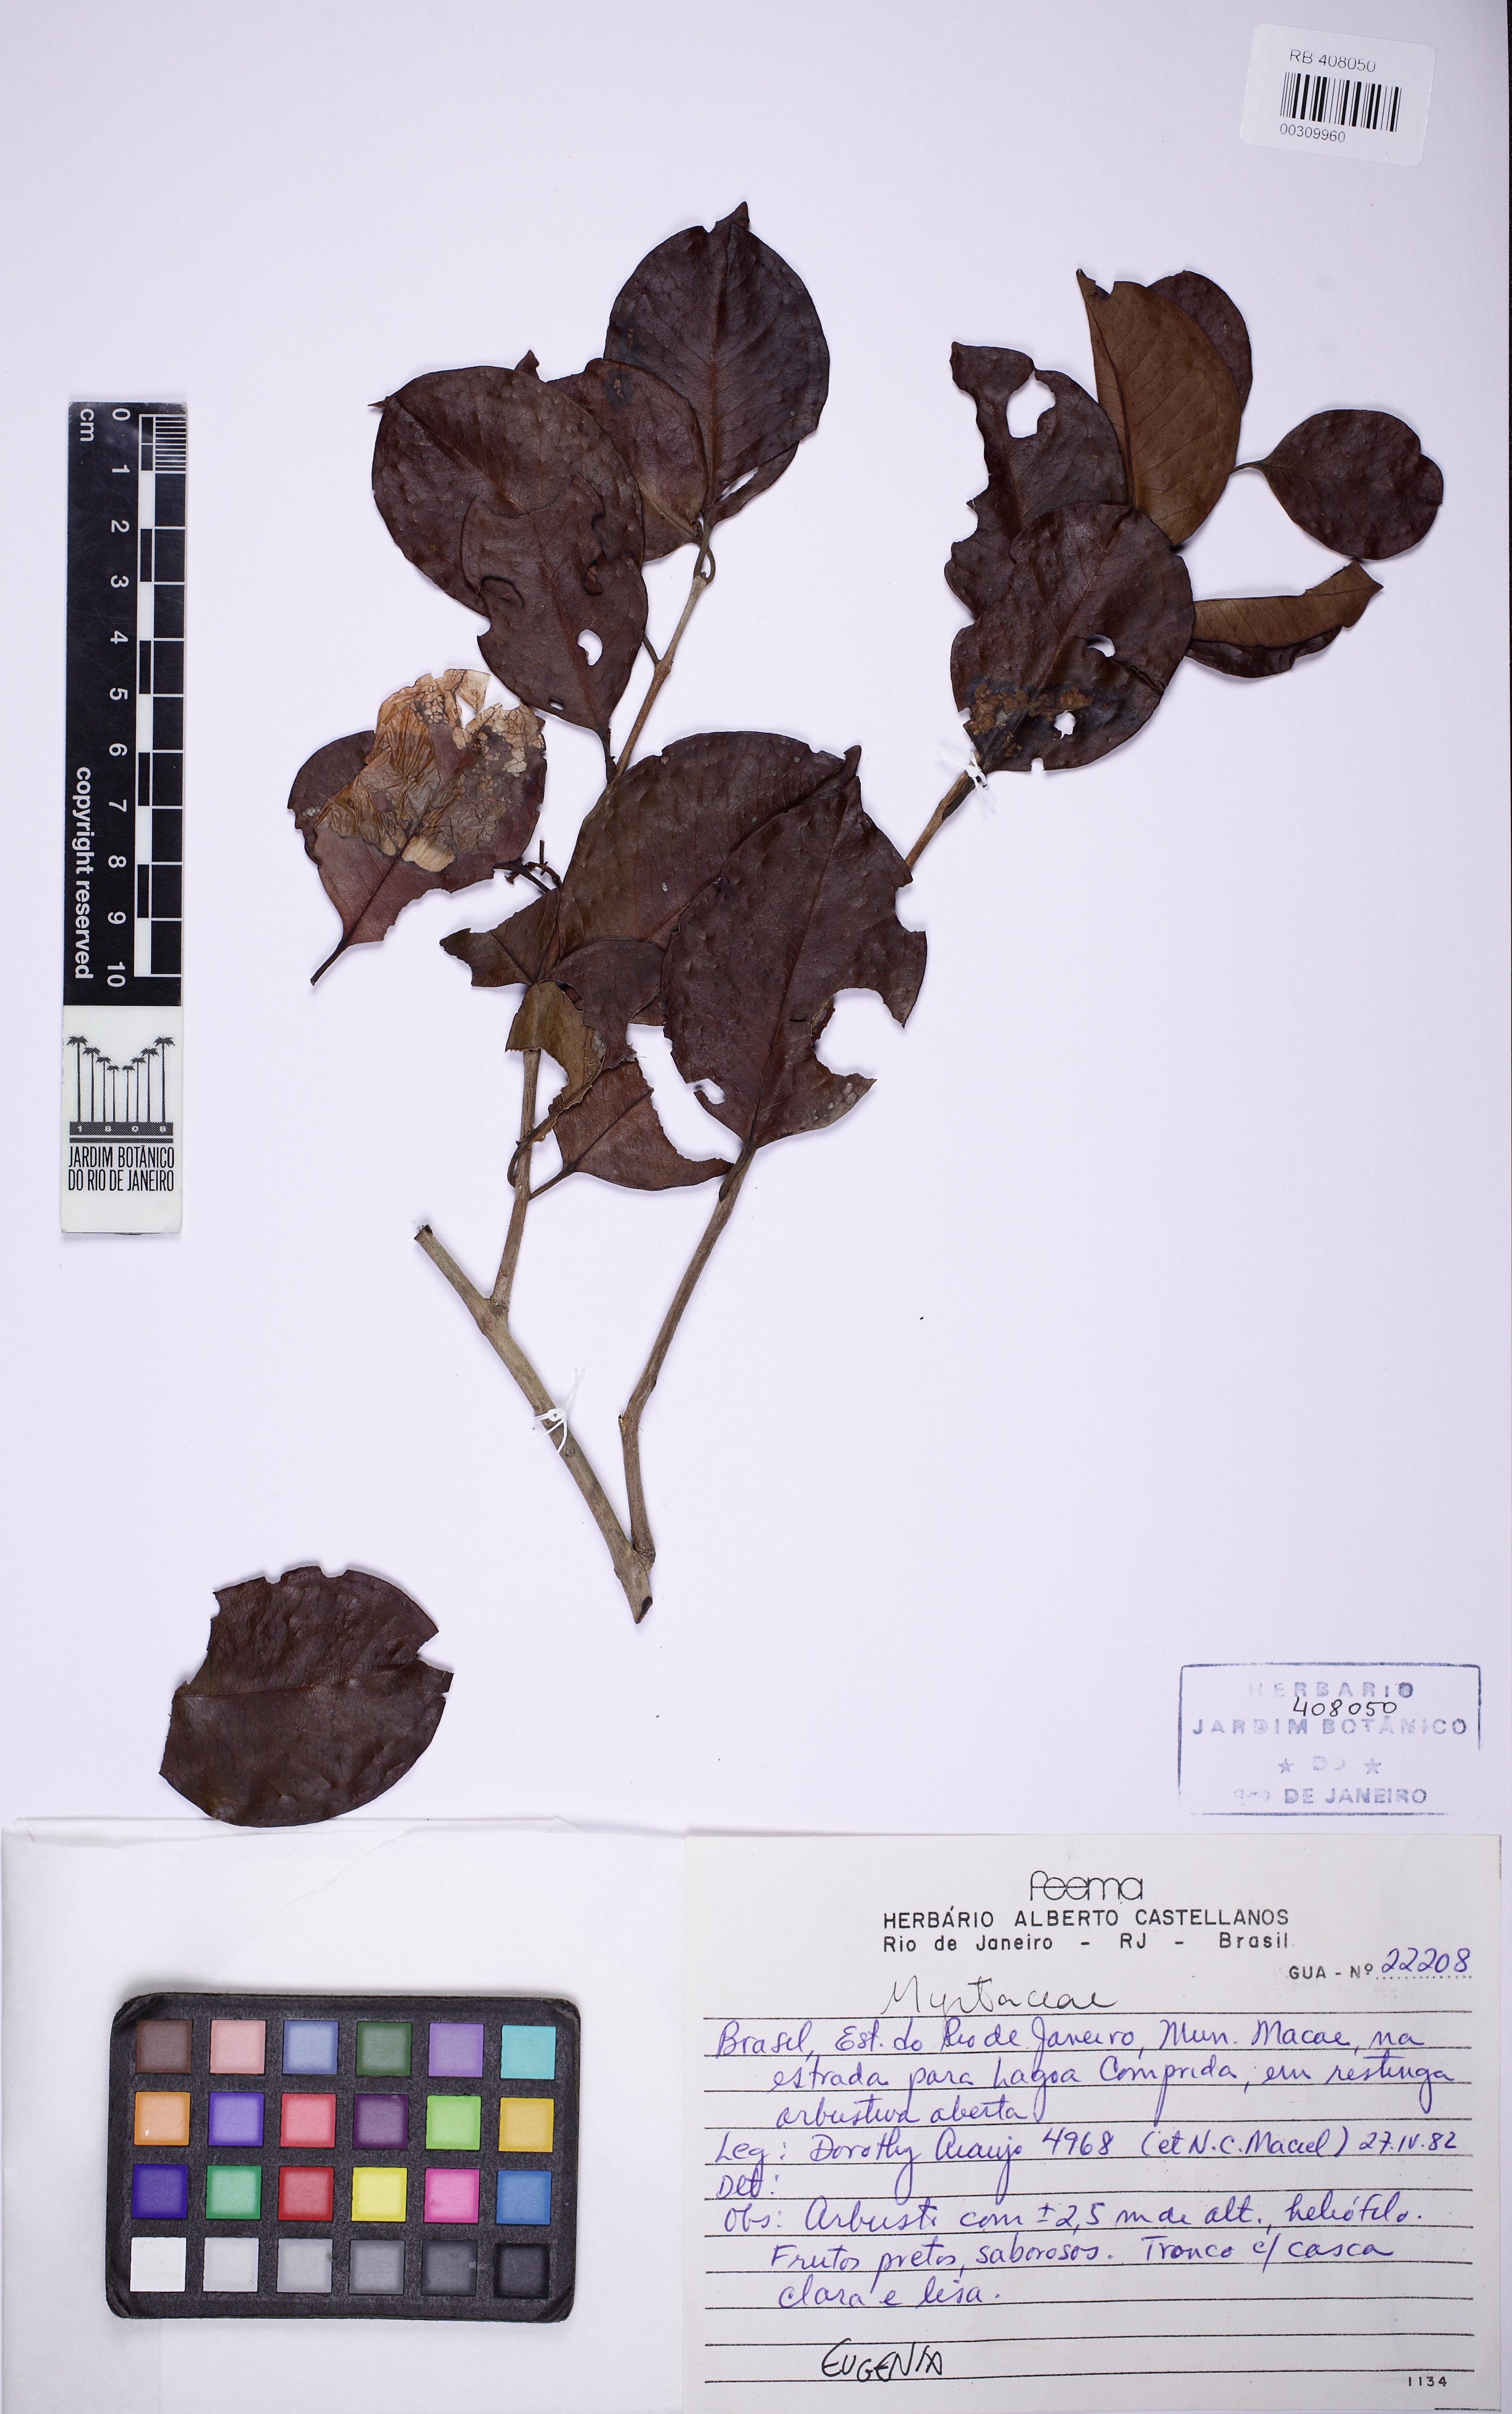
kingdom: Plantae
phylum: Tracheophyta
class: Magnoliopsida
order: Myrtales
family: Myrtaceae
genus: Eugenia
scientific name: Eugenia
